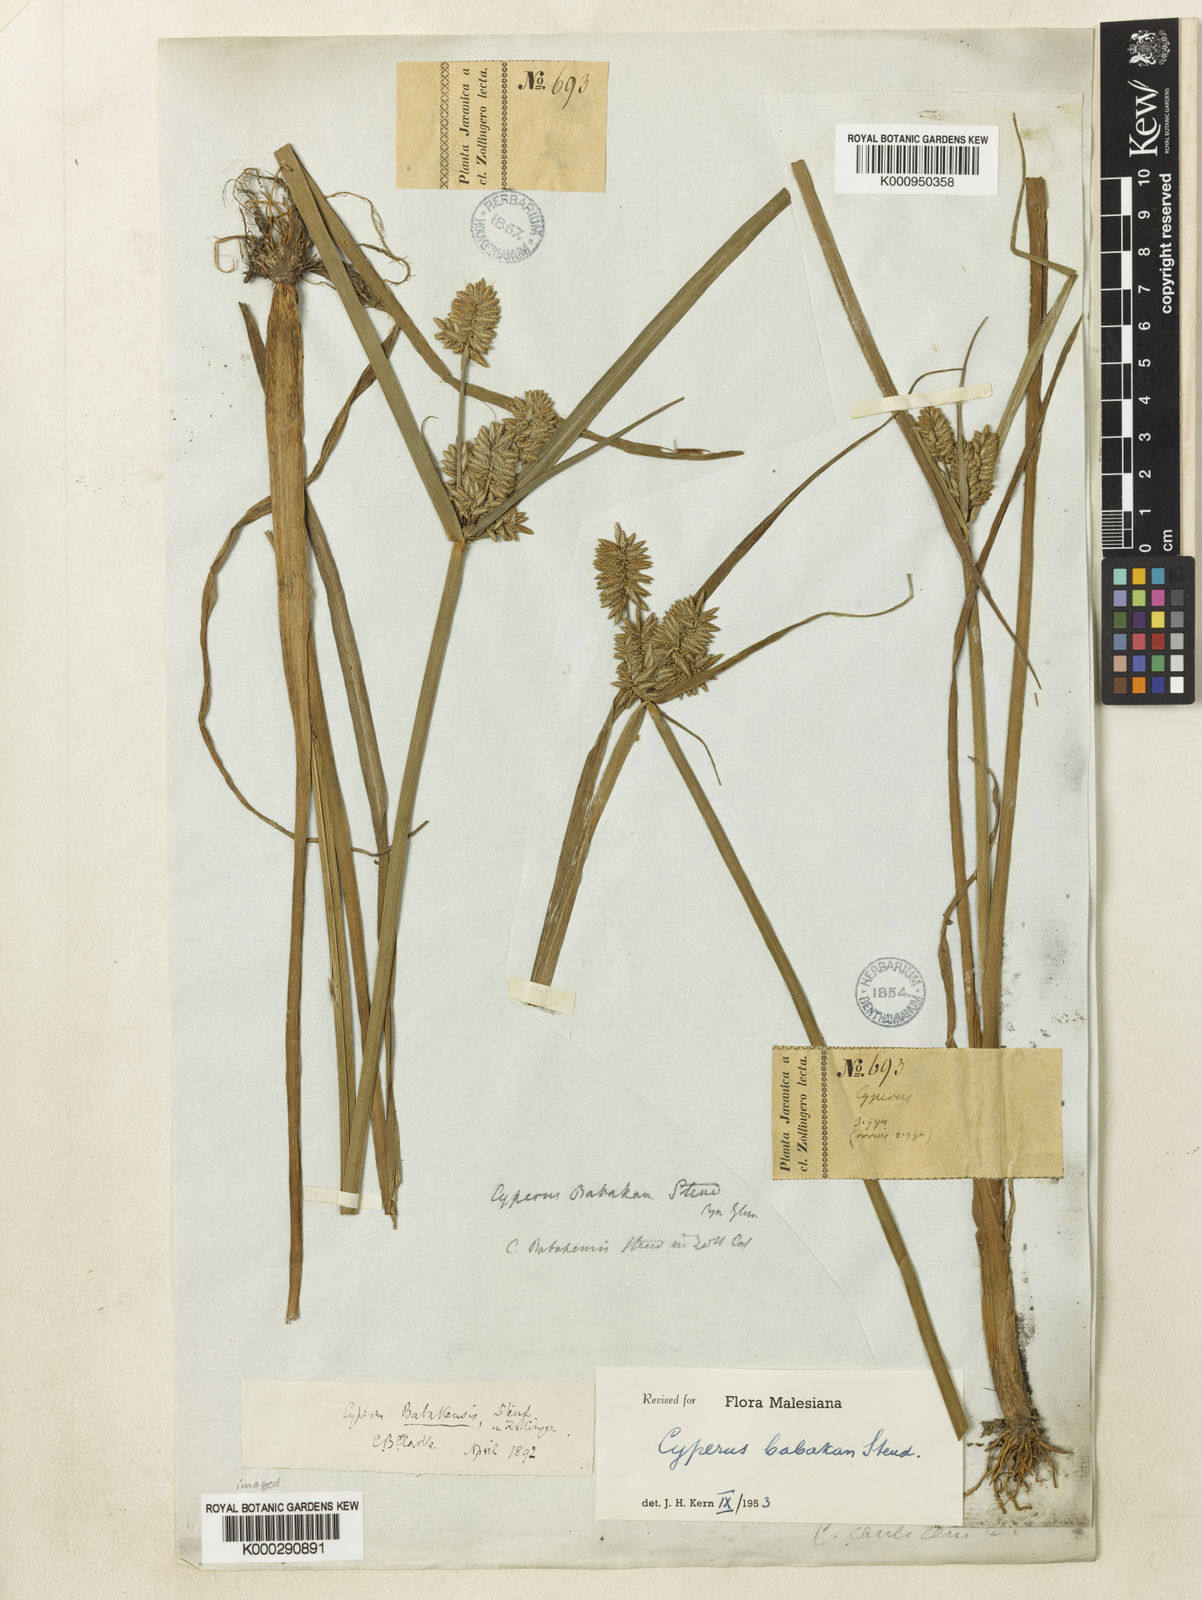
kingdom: Plantae
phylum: Tracheophyta
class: Liliopsida
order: Poales
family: Cyperaceae
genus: Cyperus
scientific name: Cyperus babakan
